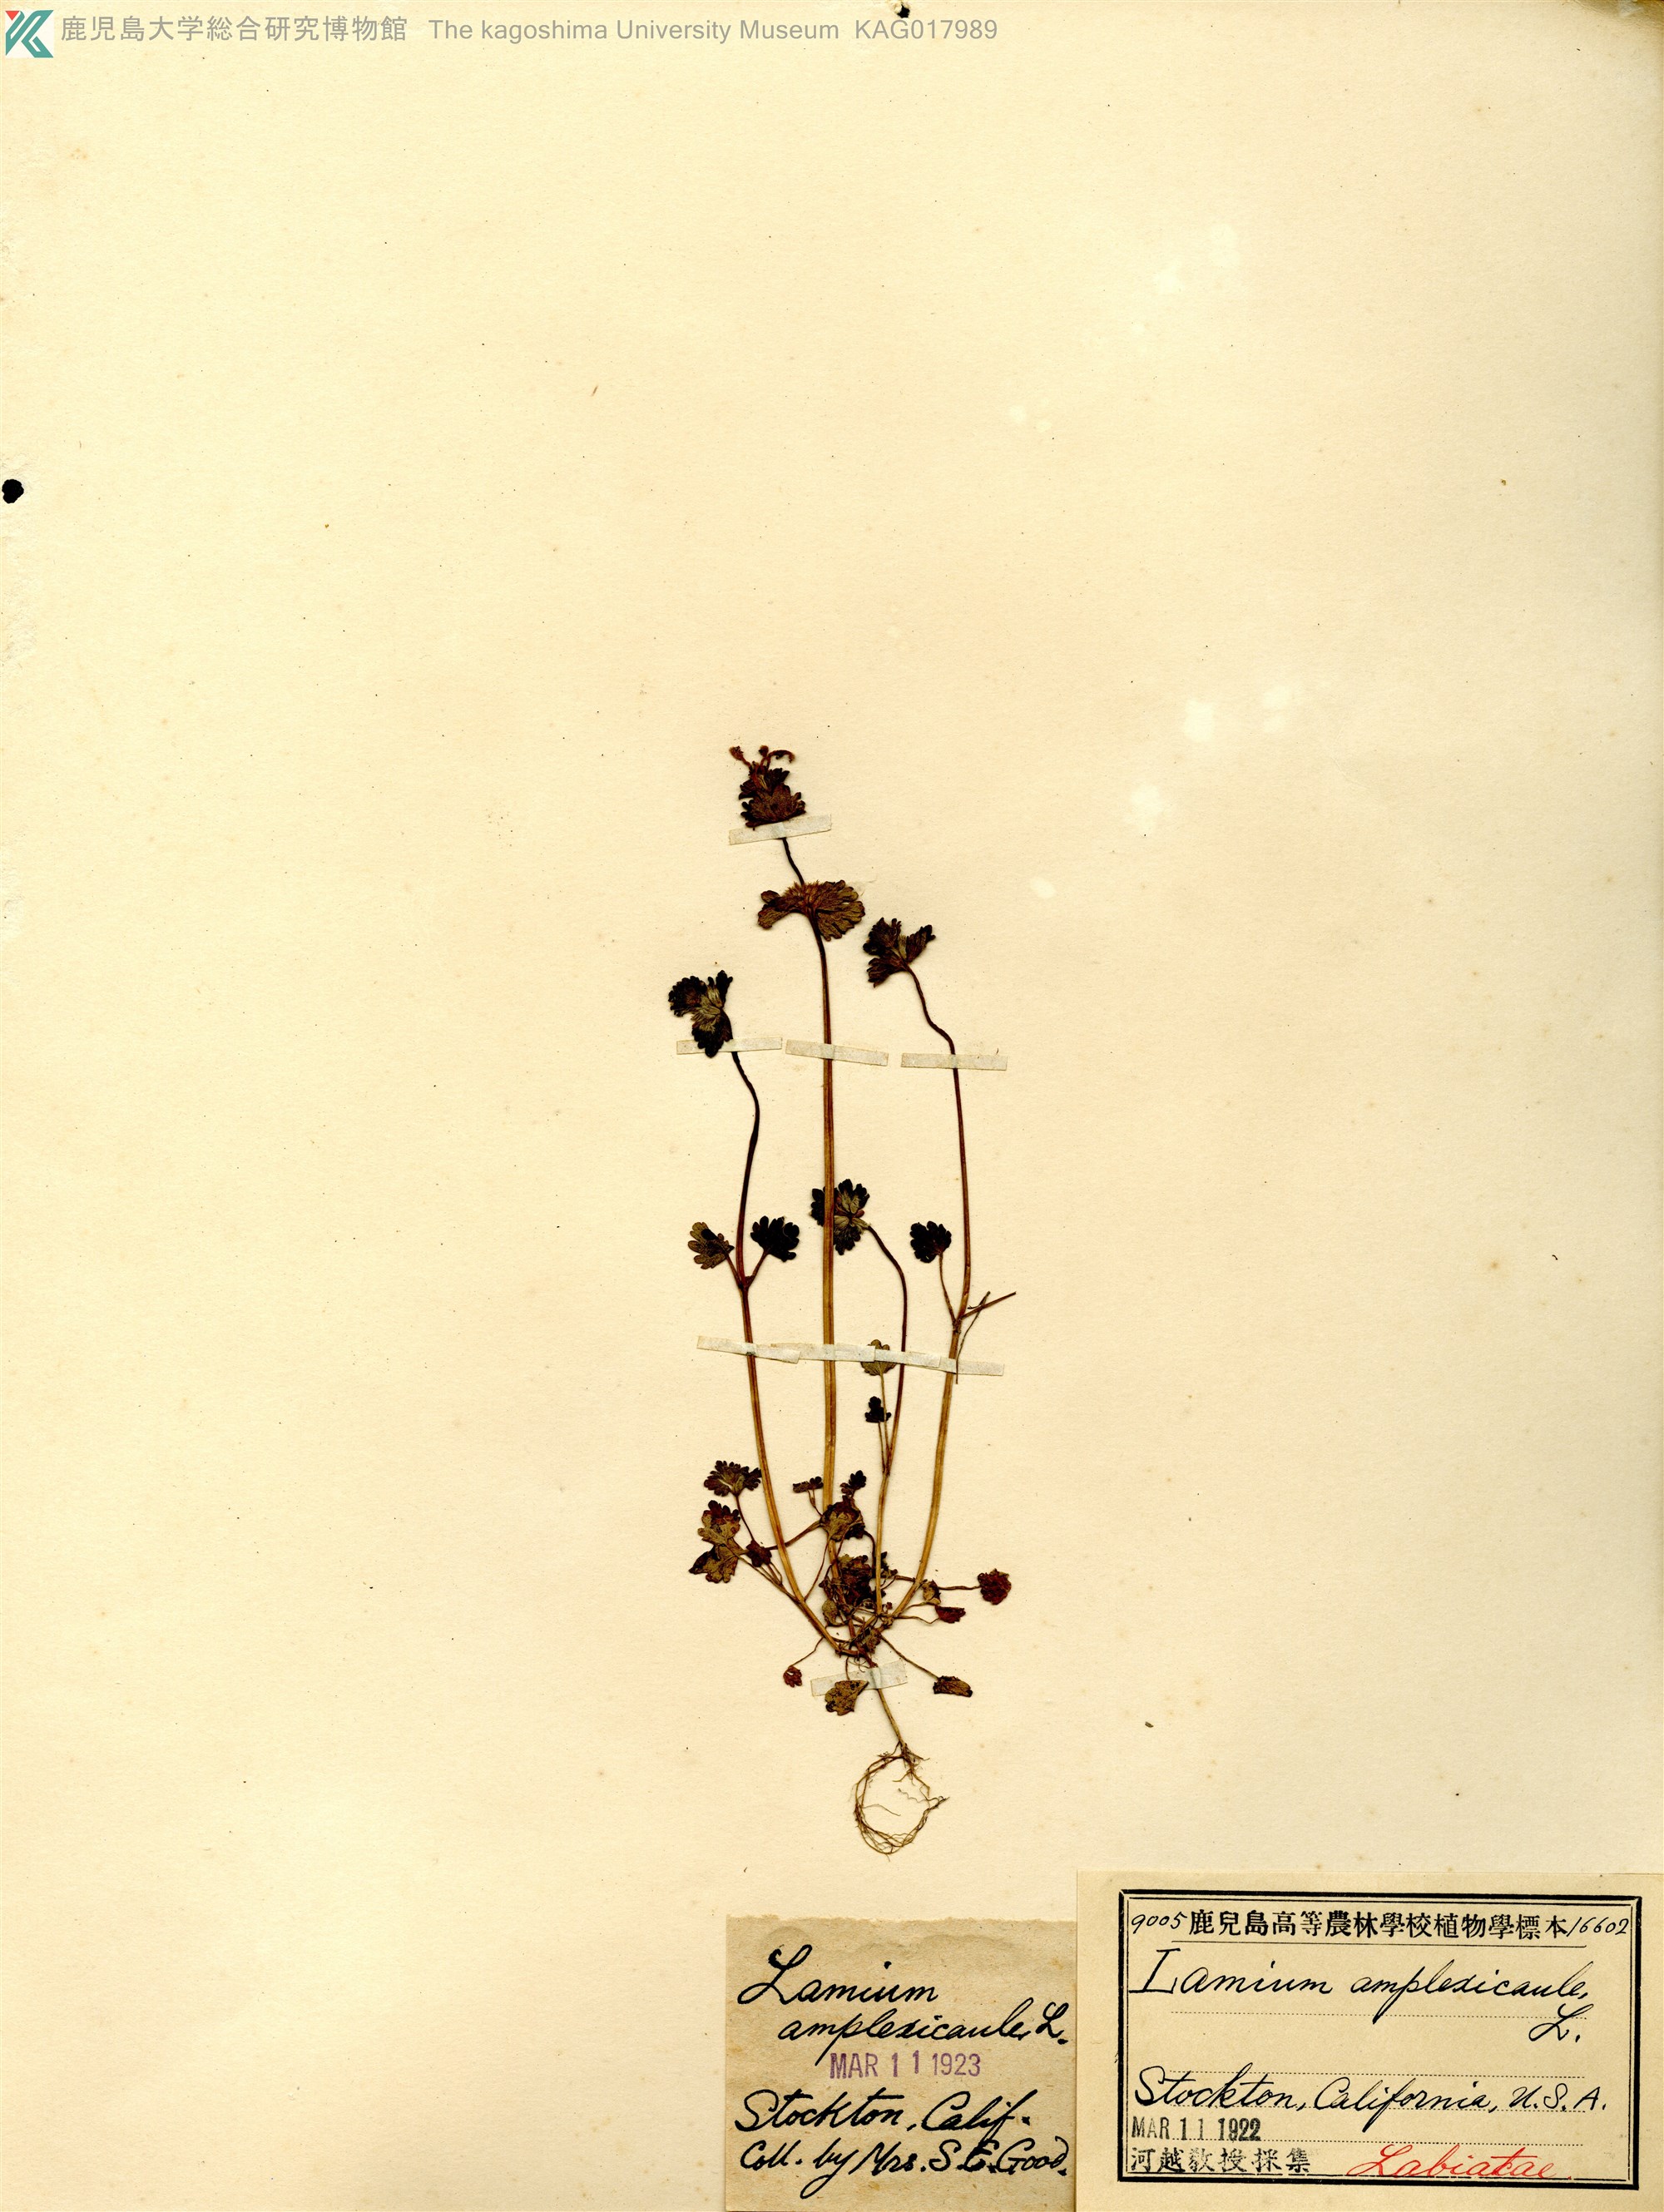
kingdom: Plantae
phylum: Tracheophyta
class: Magnoliopsida
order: Lamiales
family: Lamiaceae
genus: Lamium
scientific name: Lamium amplexicaule
